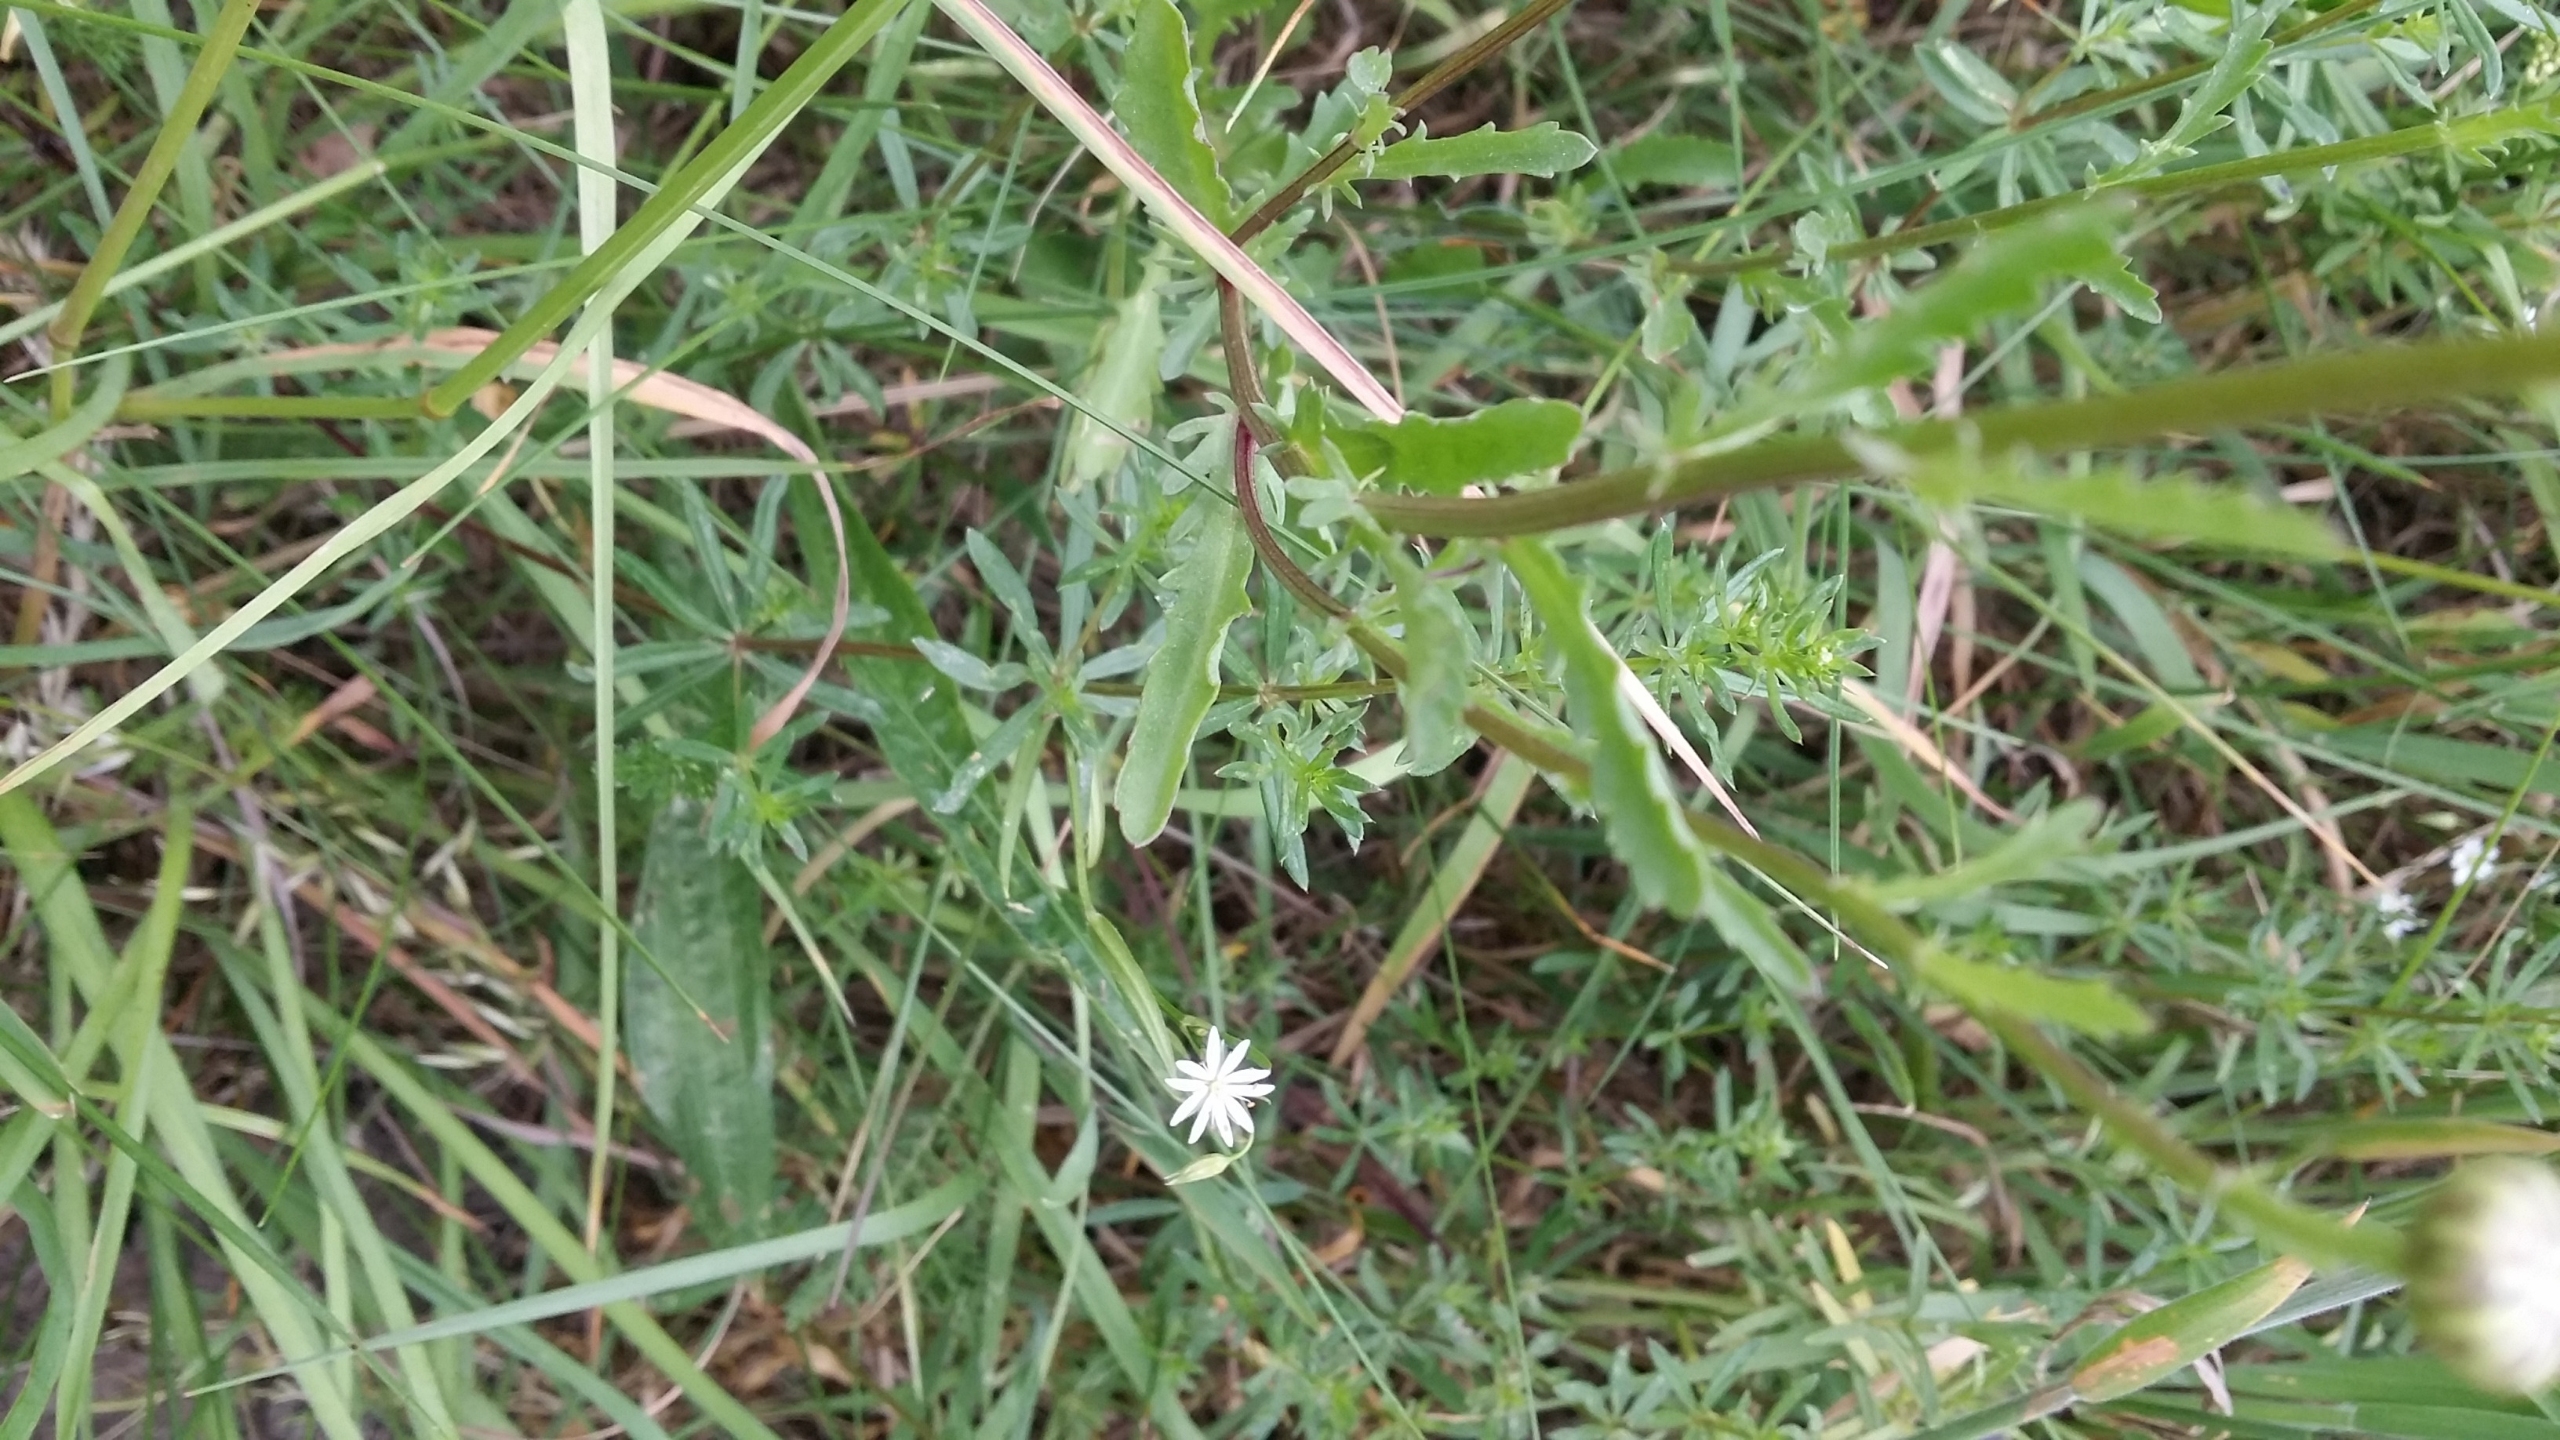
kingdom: Plantae
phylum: Tracheophyta
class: Magnoliopsida
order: Asterales
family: Asteraceae
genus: Leucanthemum
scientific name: Leucanthemum vulgare
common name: Hvid okseøje
